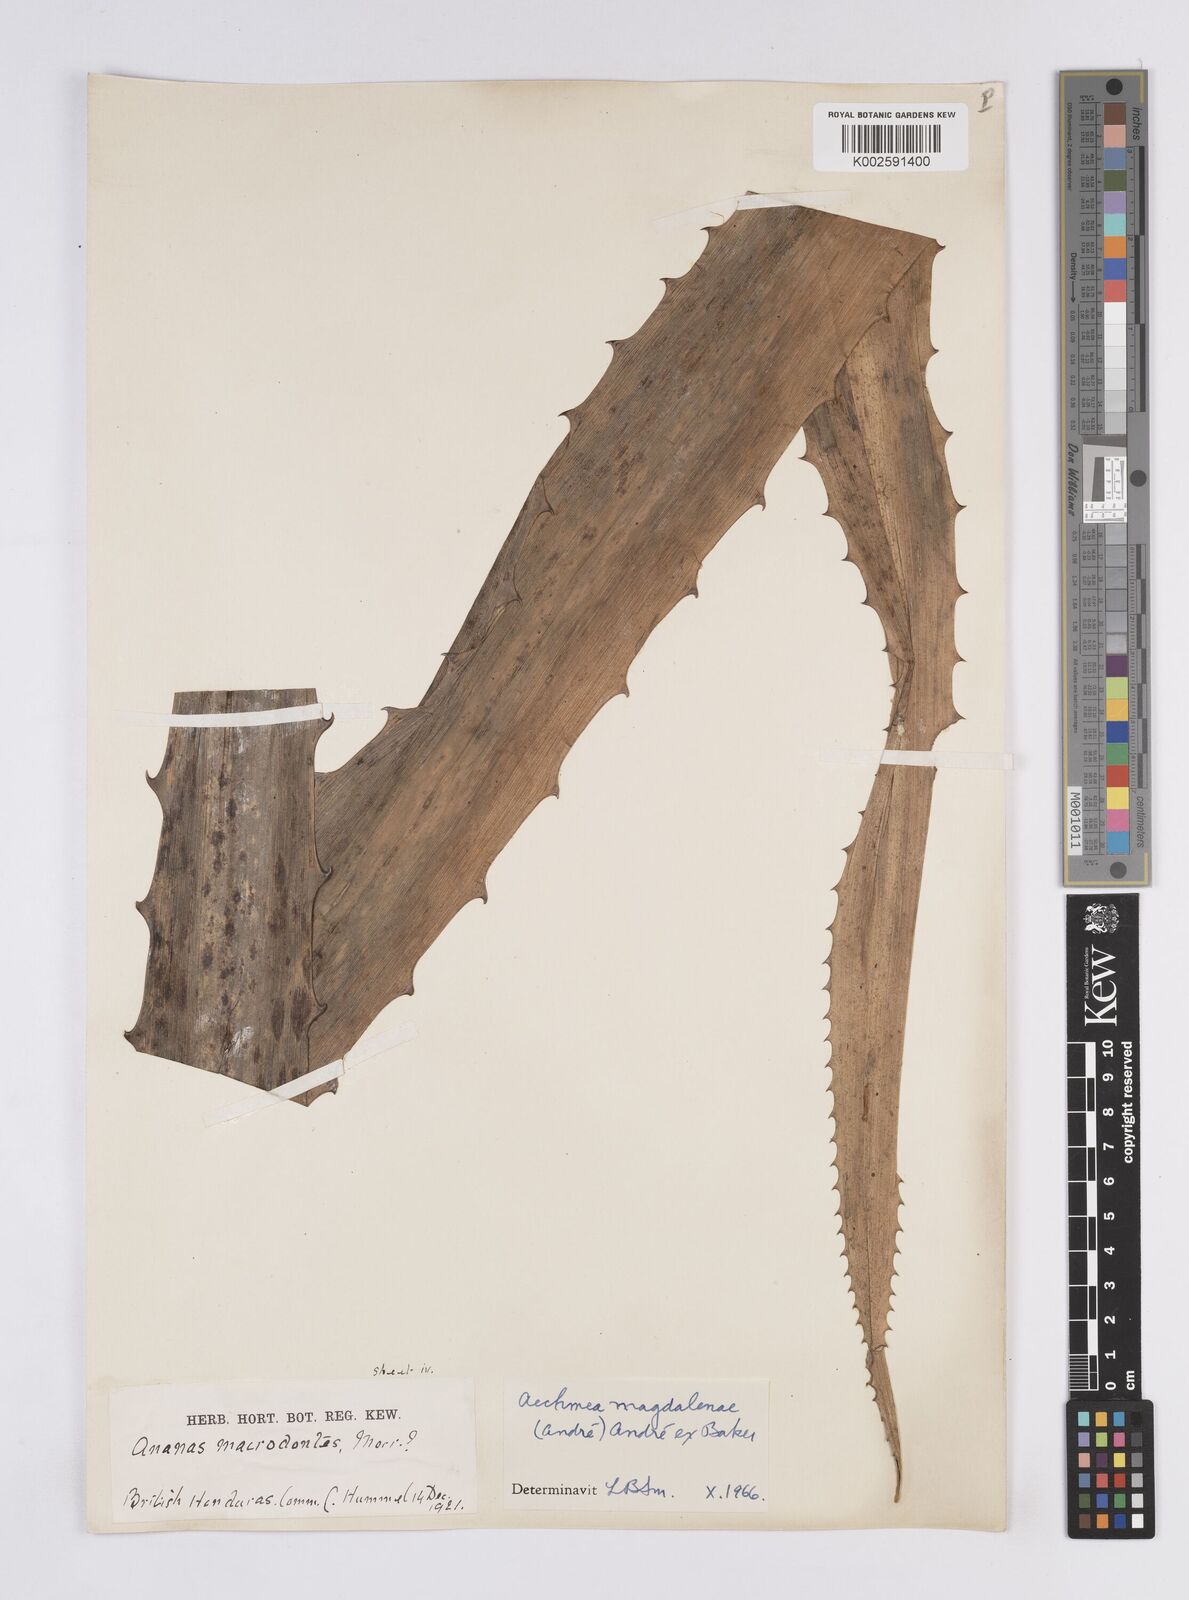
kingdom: Plantae
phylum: Tracheophyta
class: Liliopsida
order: Poales
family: Bromeliaceae
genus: Aechmea
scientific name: Aechmea magdalenae
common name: Arghan
